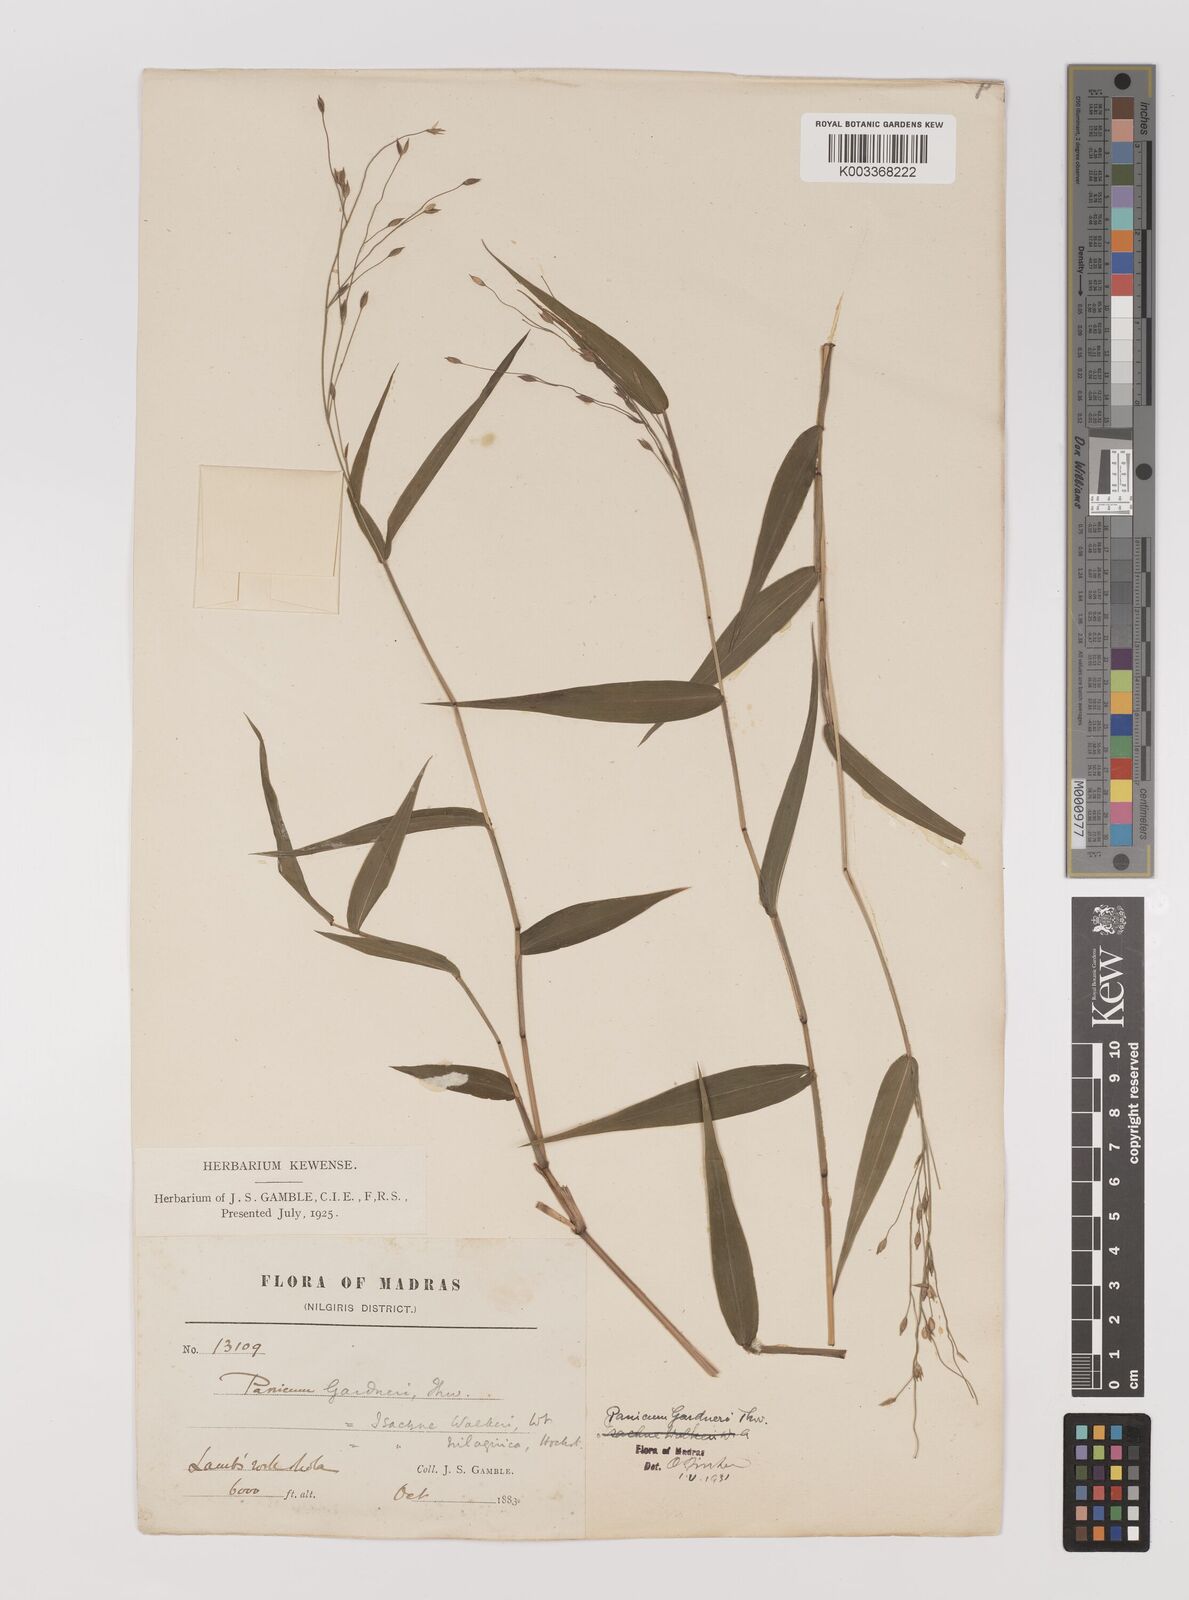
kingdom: Plantae
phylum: Tracheophyta
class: Liliopsida
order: Poales
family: Poaceae
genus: Panicum
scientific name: Panicum gardneri
